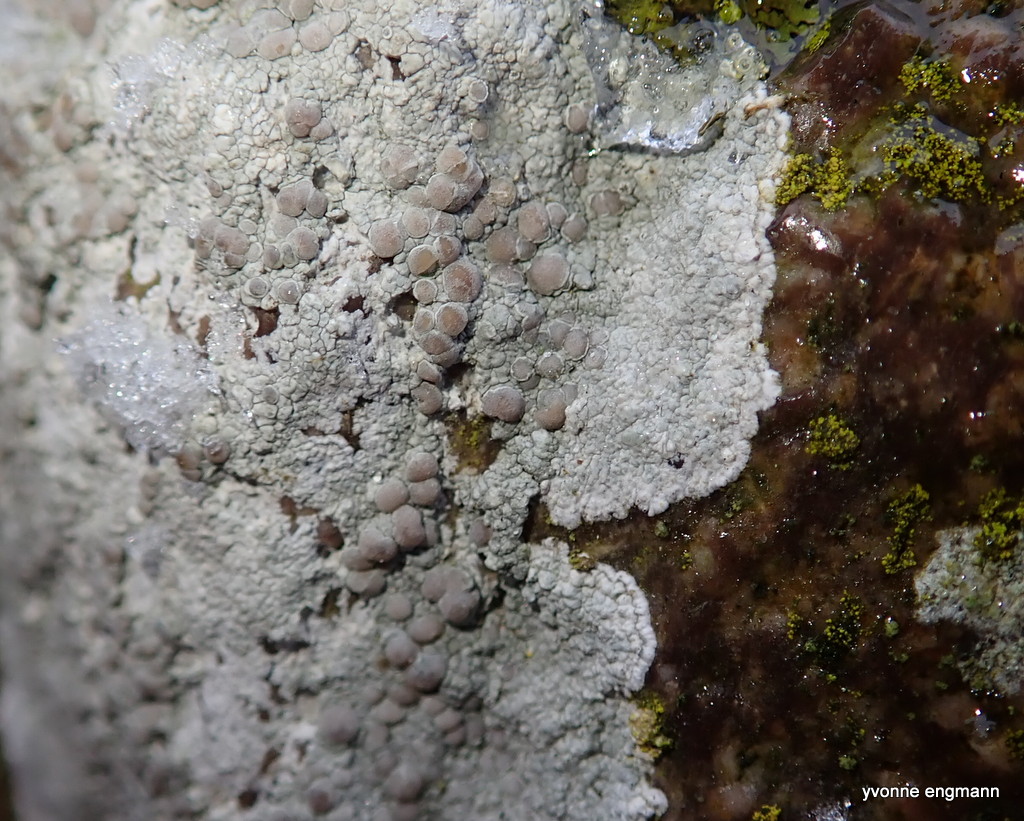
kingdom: Fungi
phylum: Ascomycota
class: Lecanoromycetes
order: Lecanorales
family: Lecanoraceae
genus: Glaucomaria
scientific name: Glaucomaria rupicola
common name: stengærde-kantskivelav
